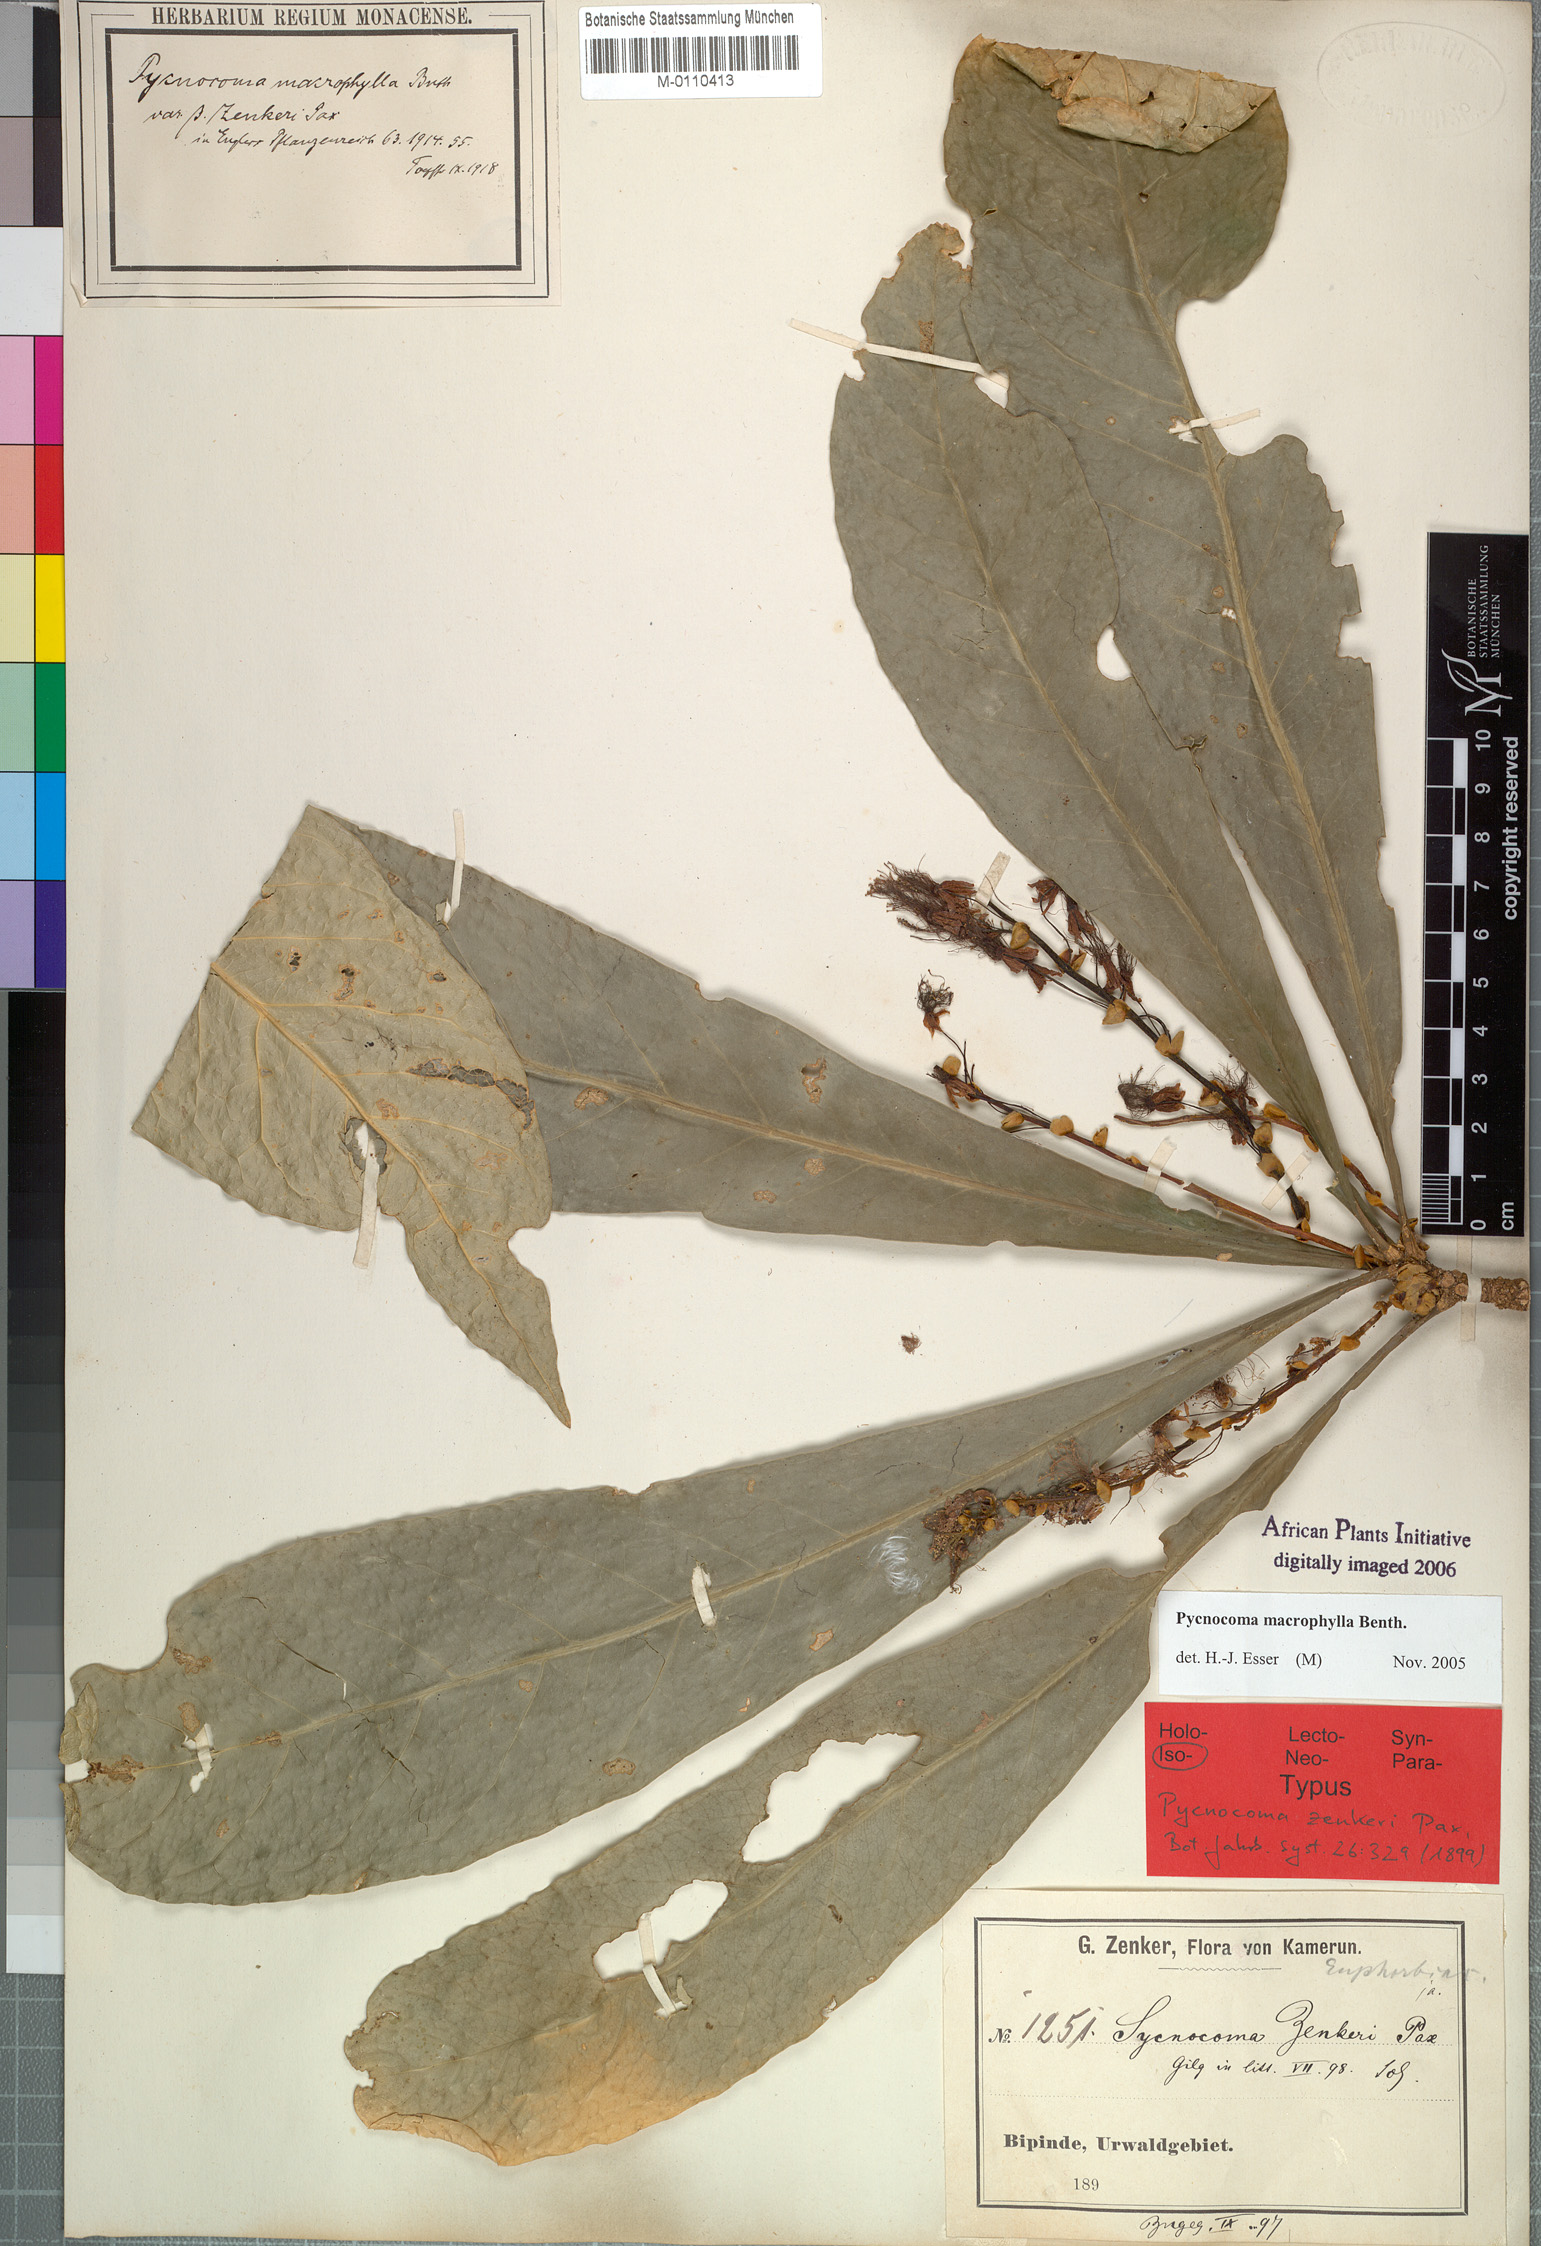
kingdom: Plantae
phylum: Tracheophyta
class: Magnoliopsida
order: Malpighiales
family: Euphorbiaceae
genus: Pycnocoma
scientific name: Pycnocoma macrophylla
